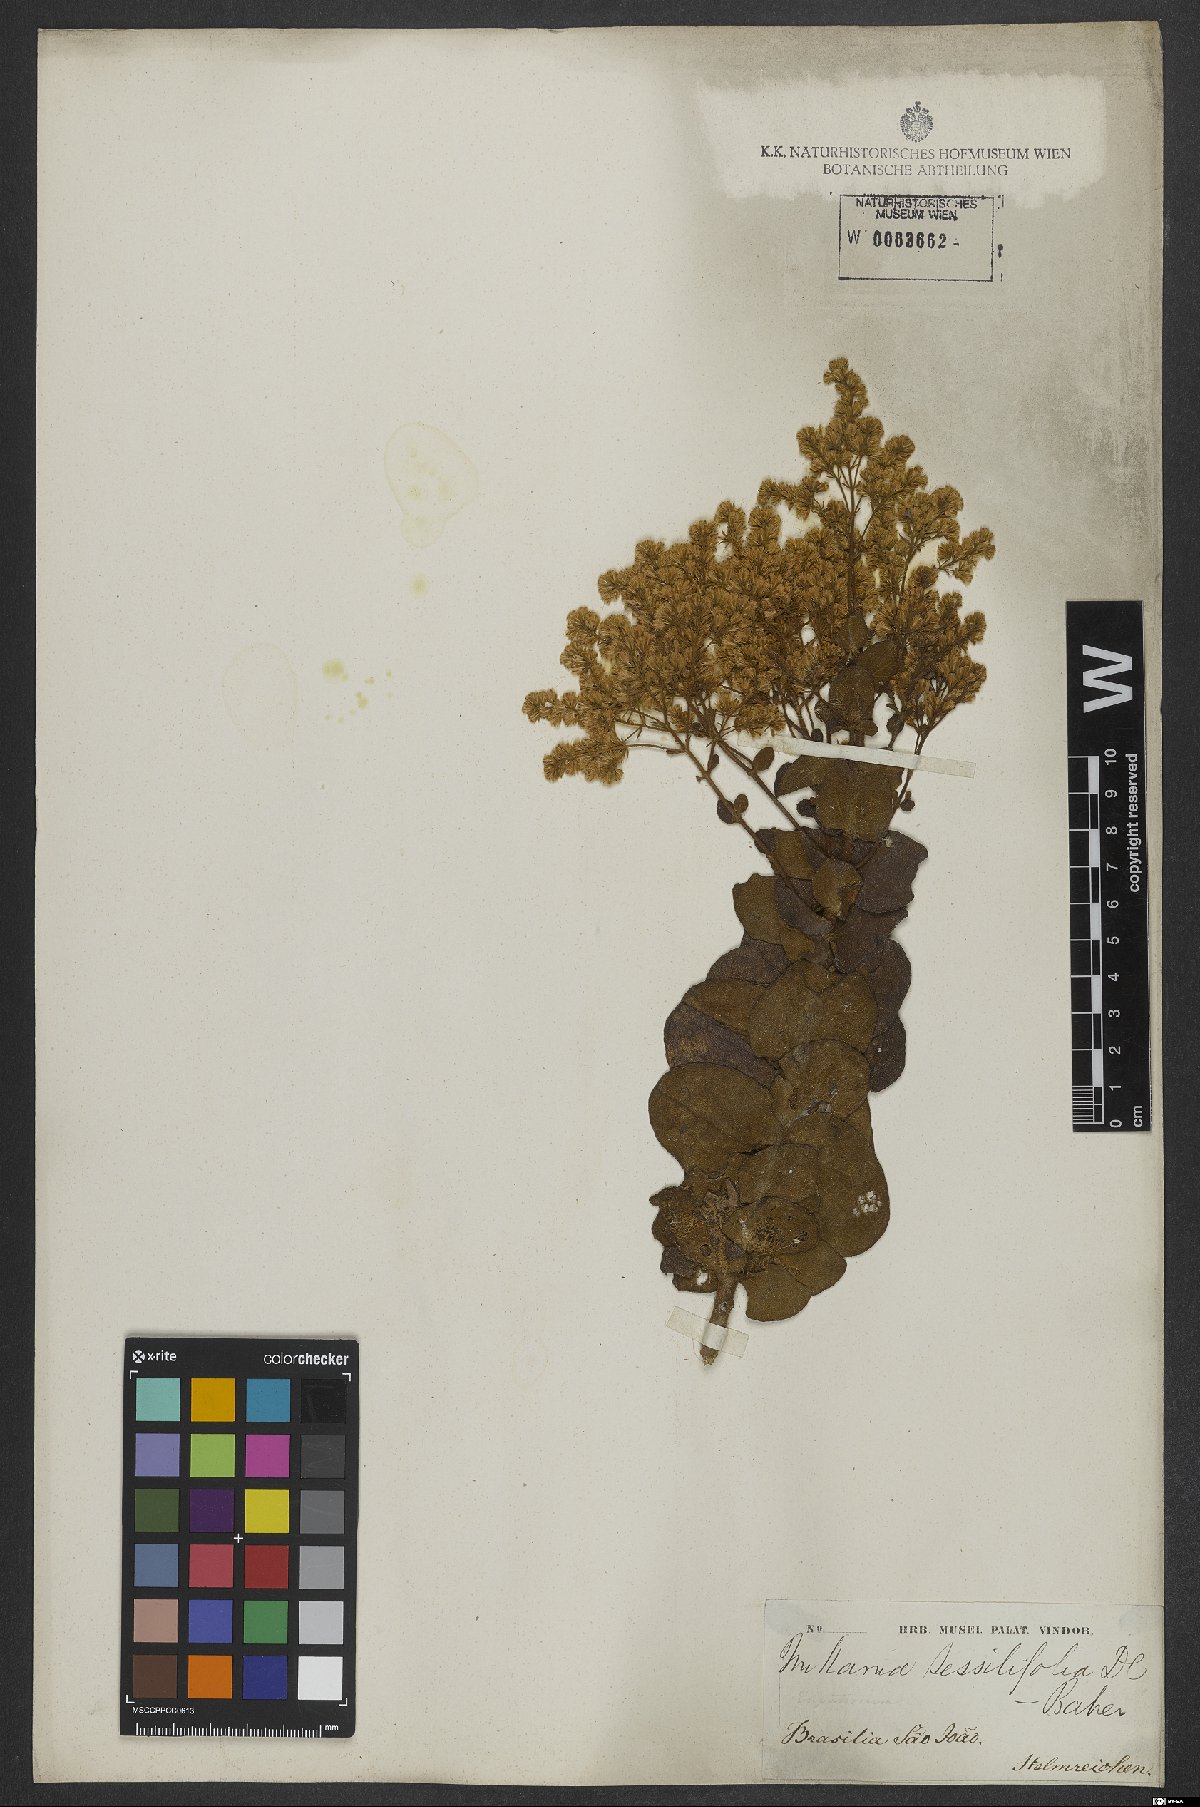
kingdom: Plantae
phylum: Tracheophyta
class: Magnoliopsida
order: Asterales
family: Asteraceae
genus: Mikania
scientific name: Mikania sessilifolia
